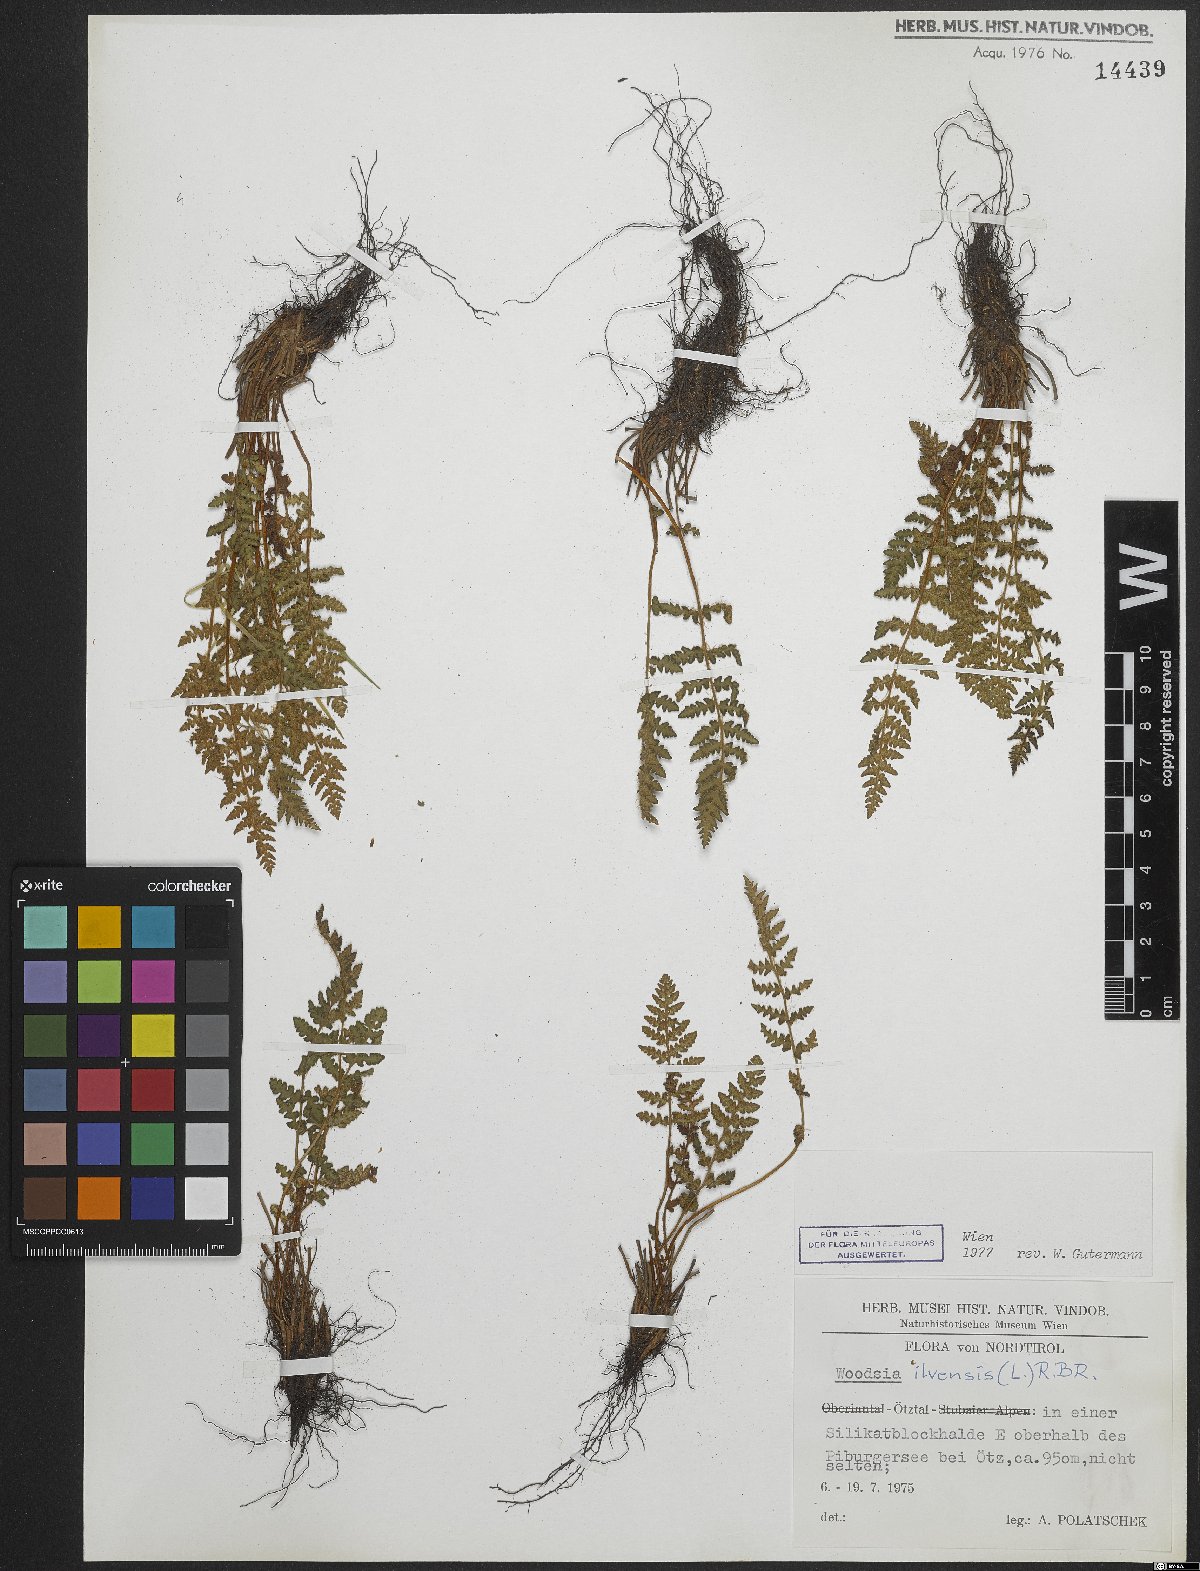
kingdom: Plantae
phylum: Tracheophyta
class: Polypodiopsida
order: Polypodiales
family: Woodsiaceae
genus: Woodsia
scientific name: Woodsia ilvensis
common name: Fragrant woodsia
